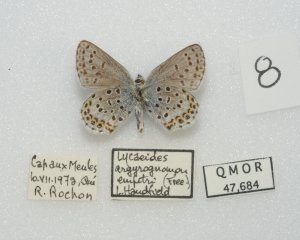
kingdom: Animalia
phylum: Arthropoda
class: Insecta
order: Lepidoptera
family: Lycaenidae
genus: Lycaeides
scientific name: Lycaeides idas
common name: Northern Blue
